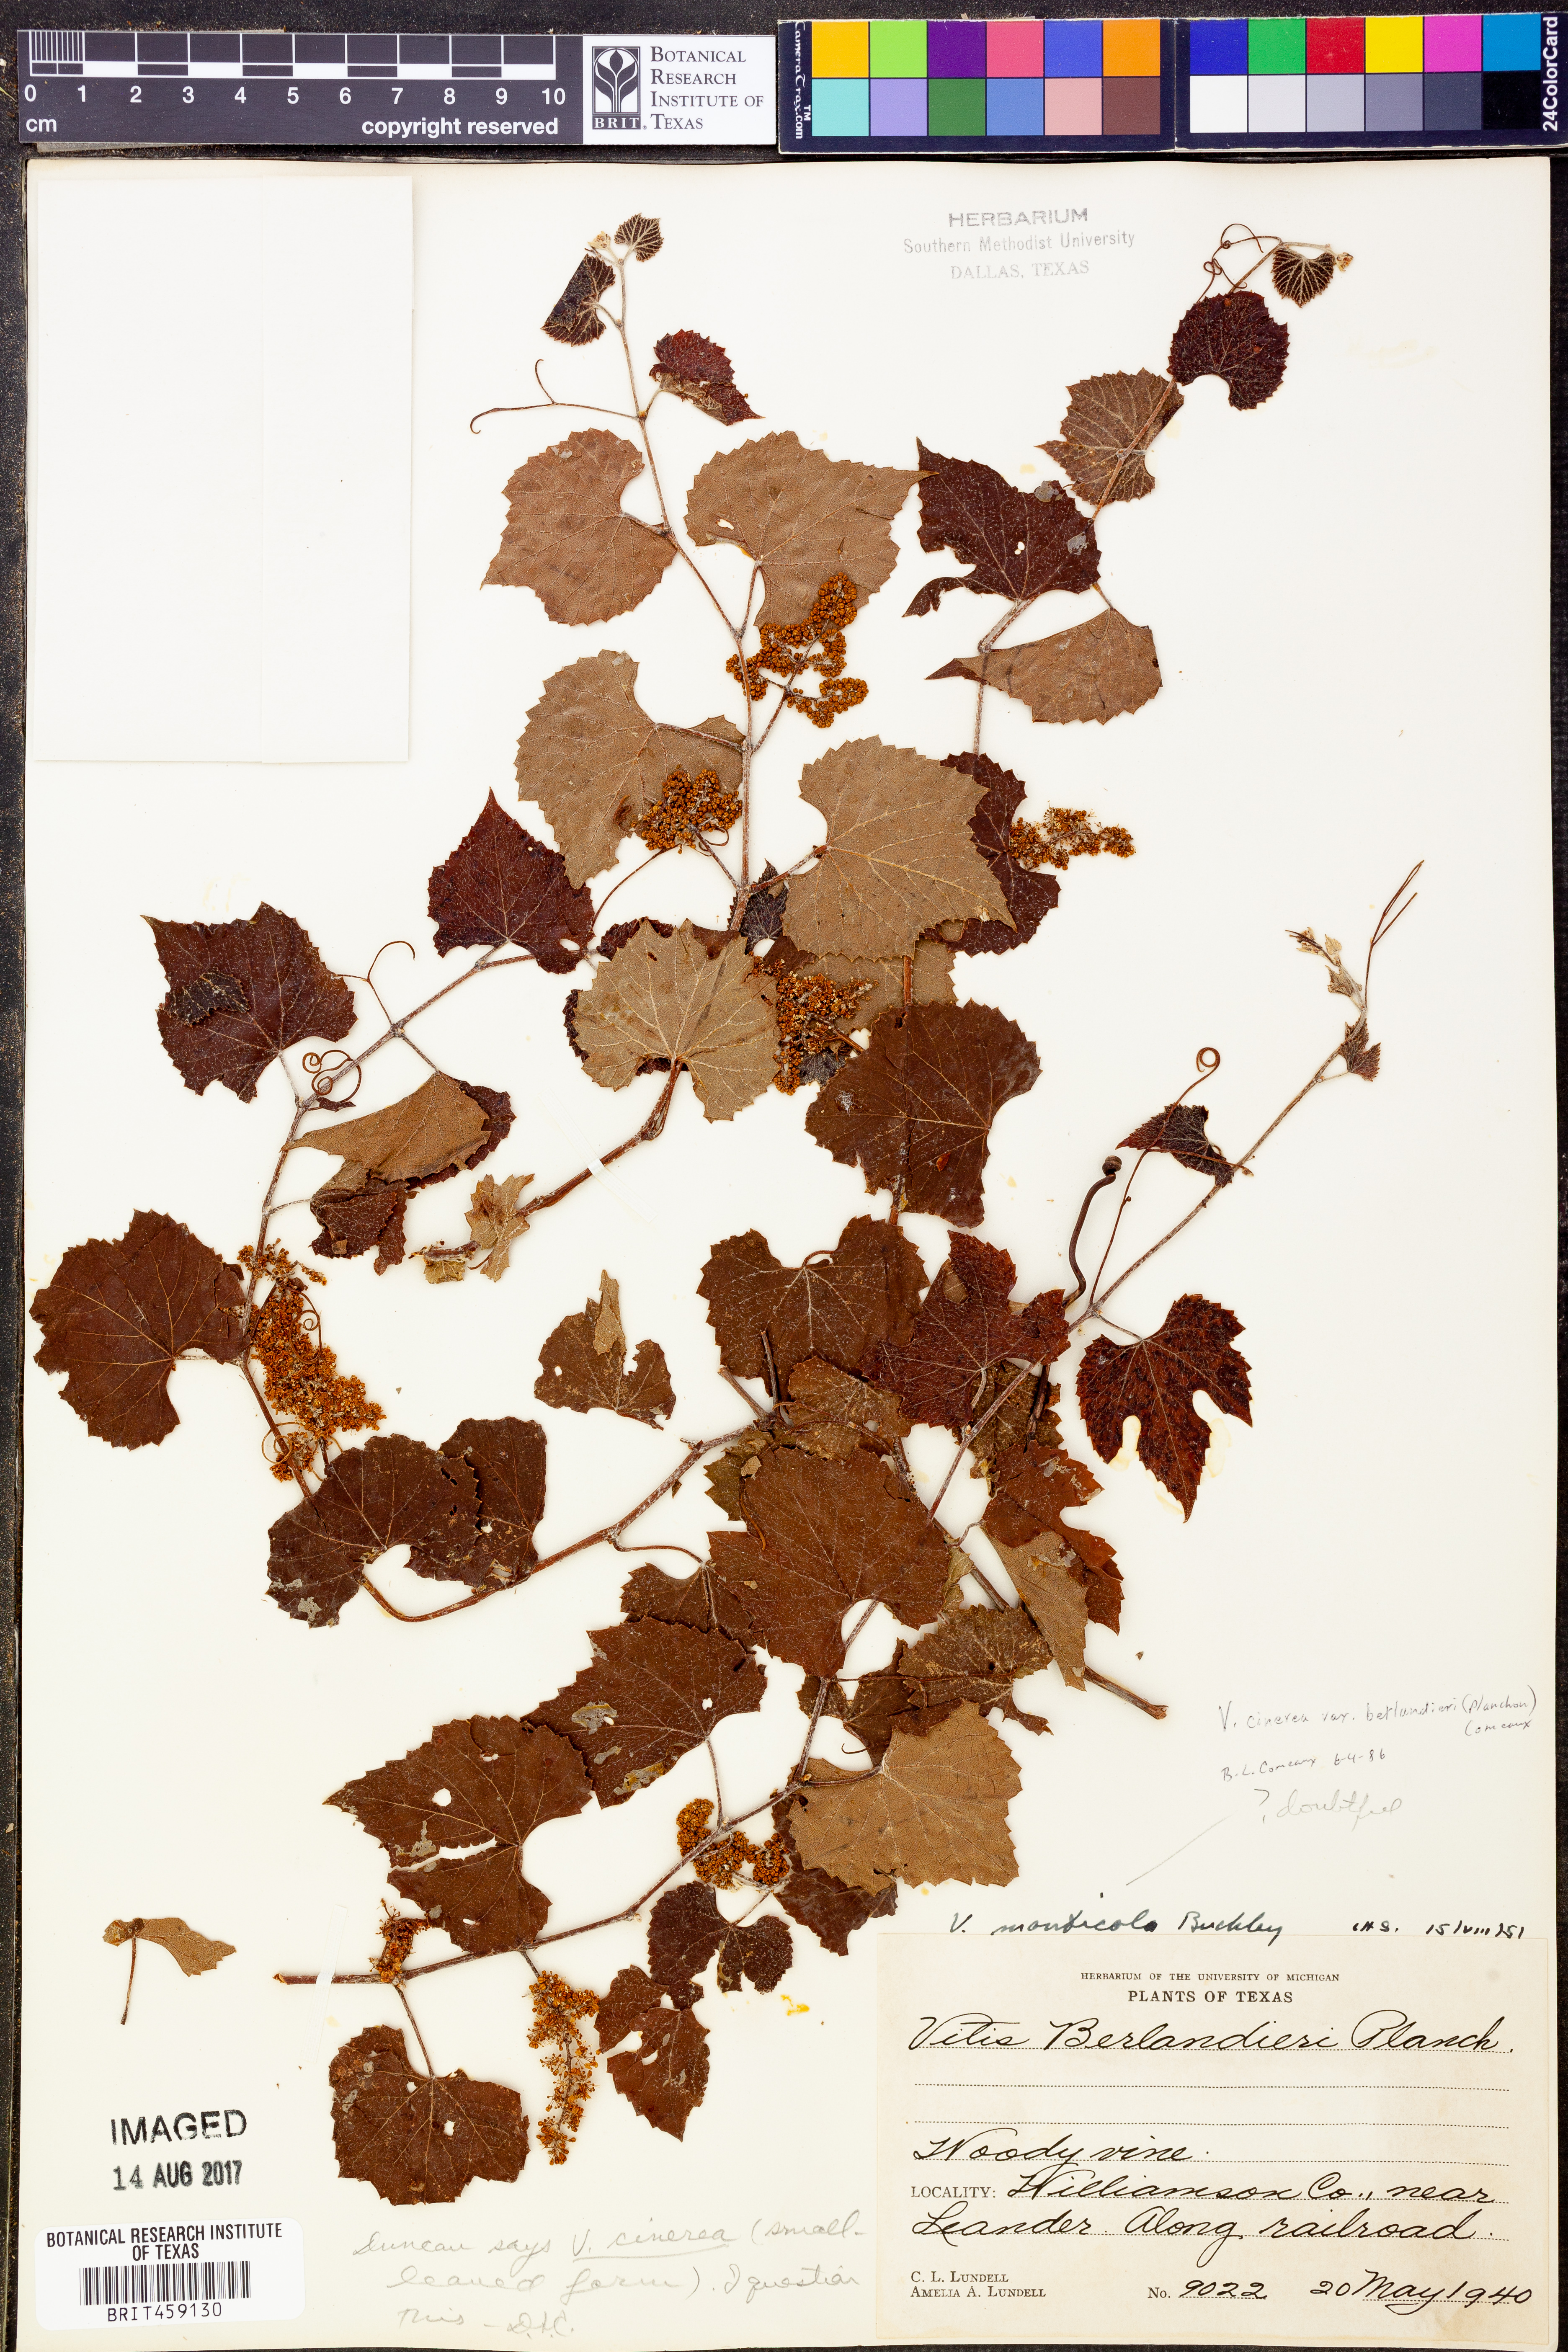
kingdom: Plantae
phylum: Tracheophyta
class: Magnoliopsida
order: Vitales
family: Vitaceae
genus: Vitis
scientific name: Vitis cinerea
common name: Ashy grape
